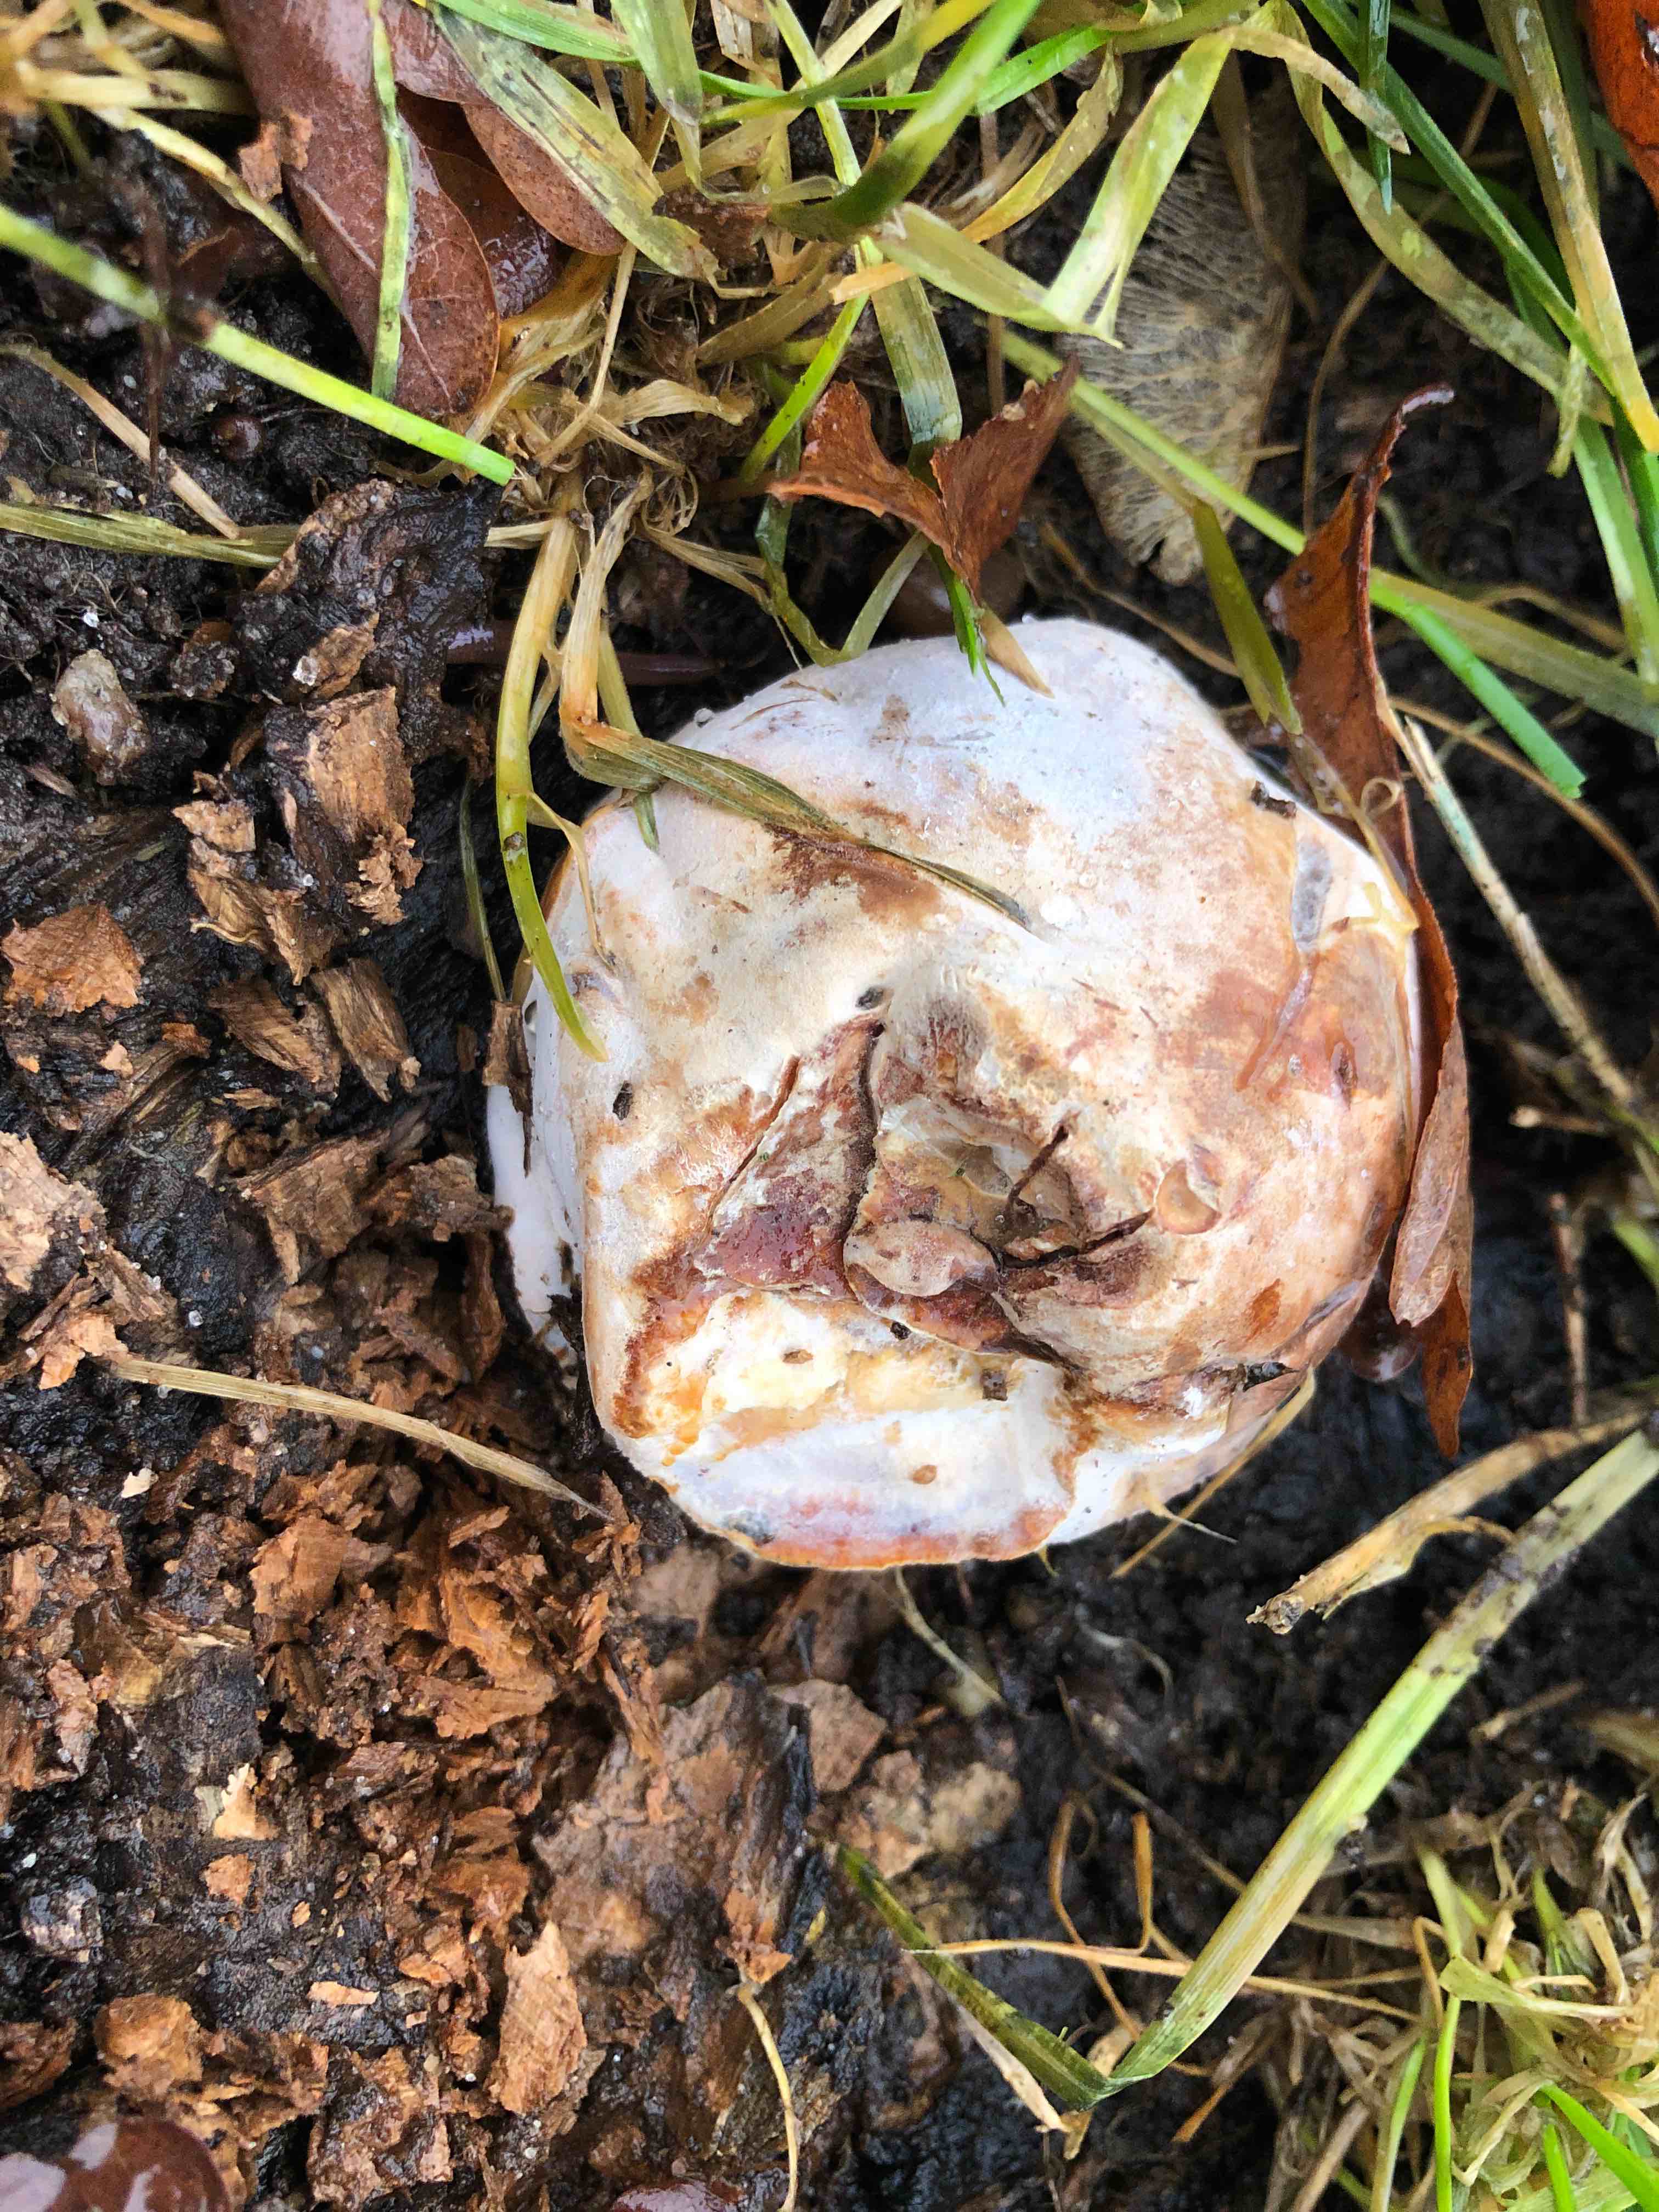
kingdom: Fungi
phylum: Basidiomycota
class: Agaricomycetes
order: Polyporales
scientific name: Polyporales
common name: poresvampordenen
